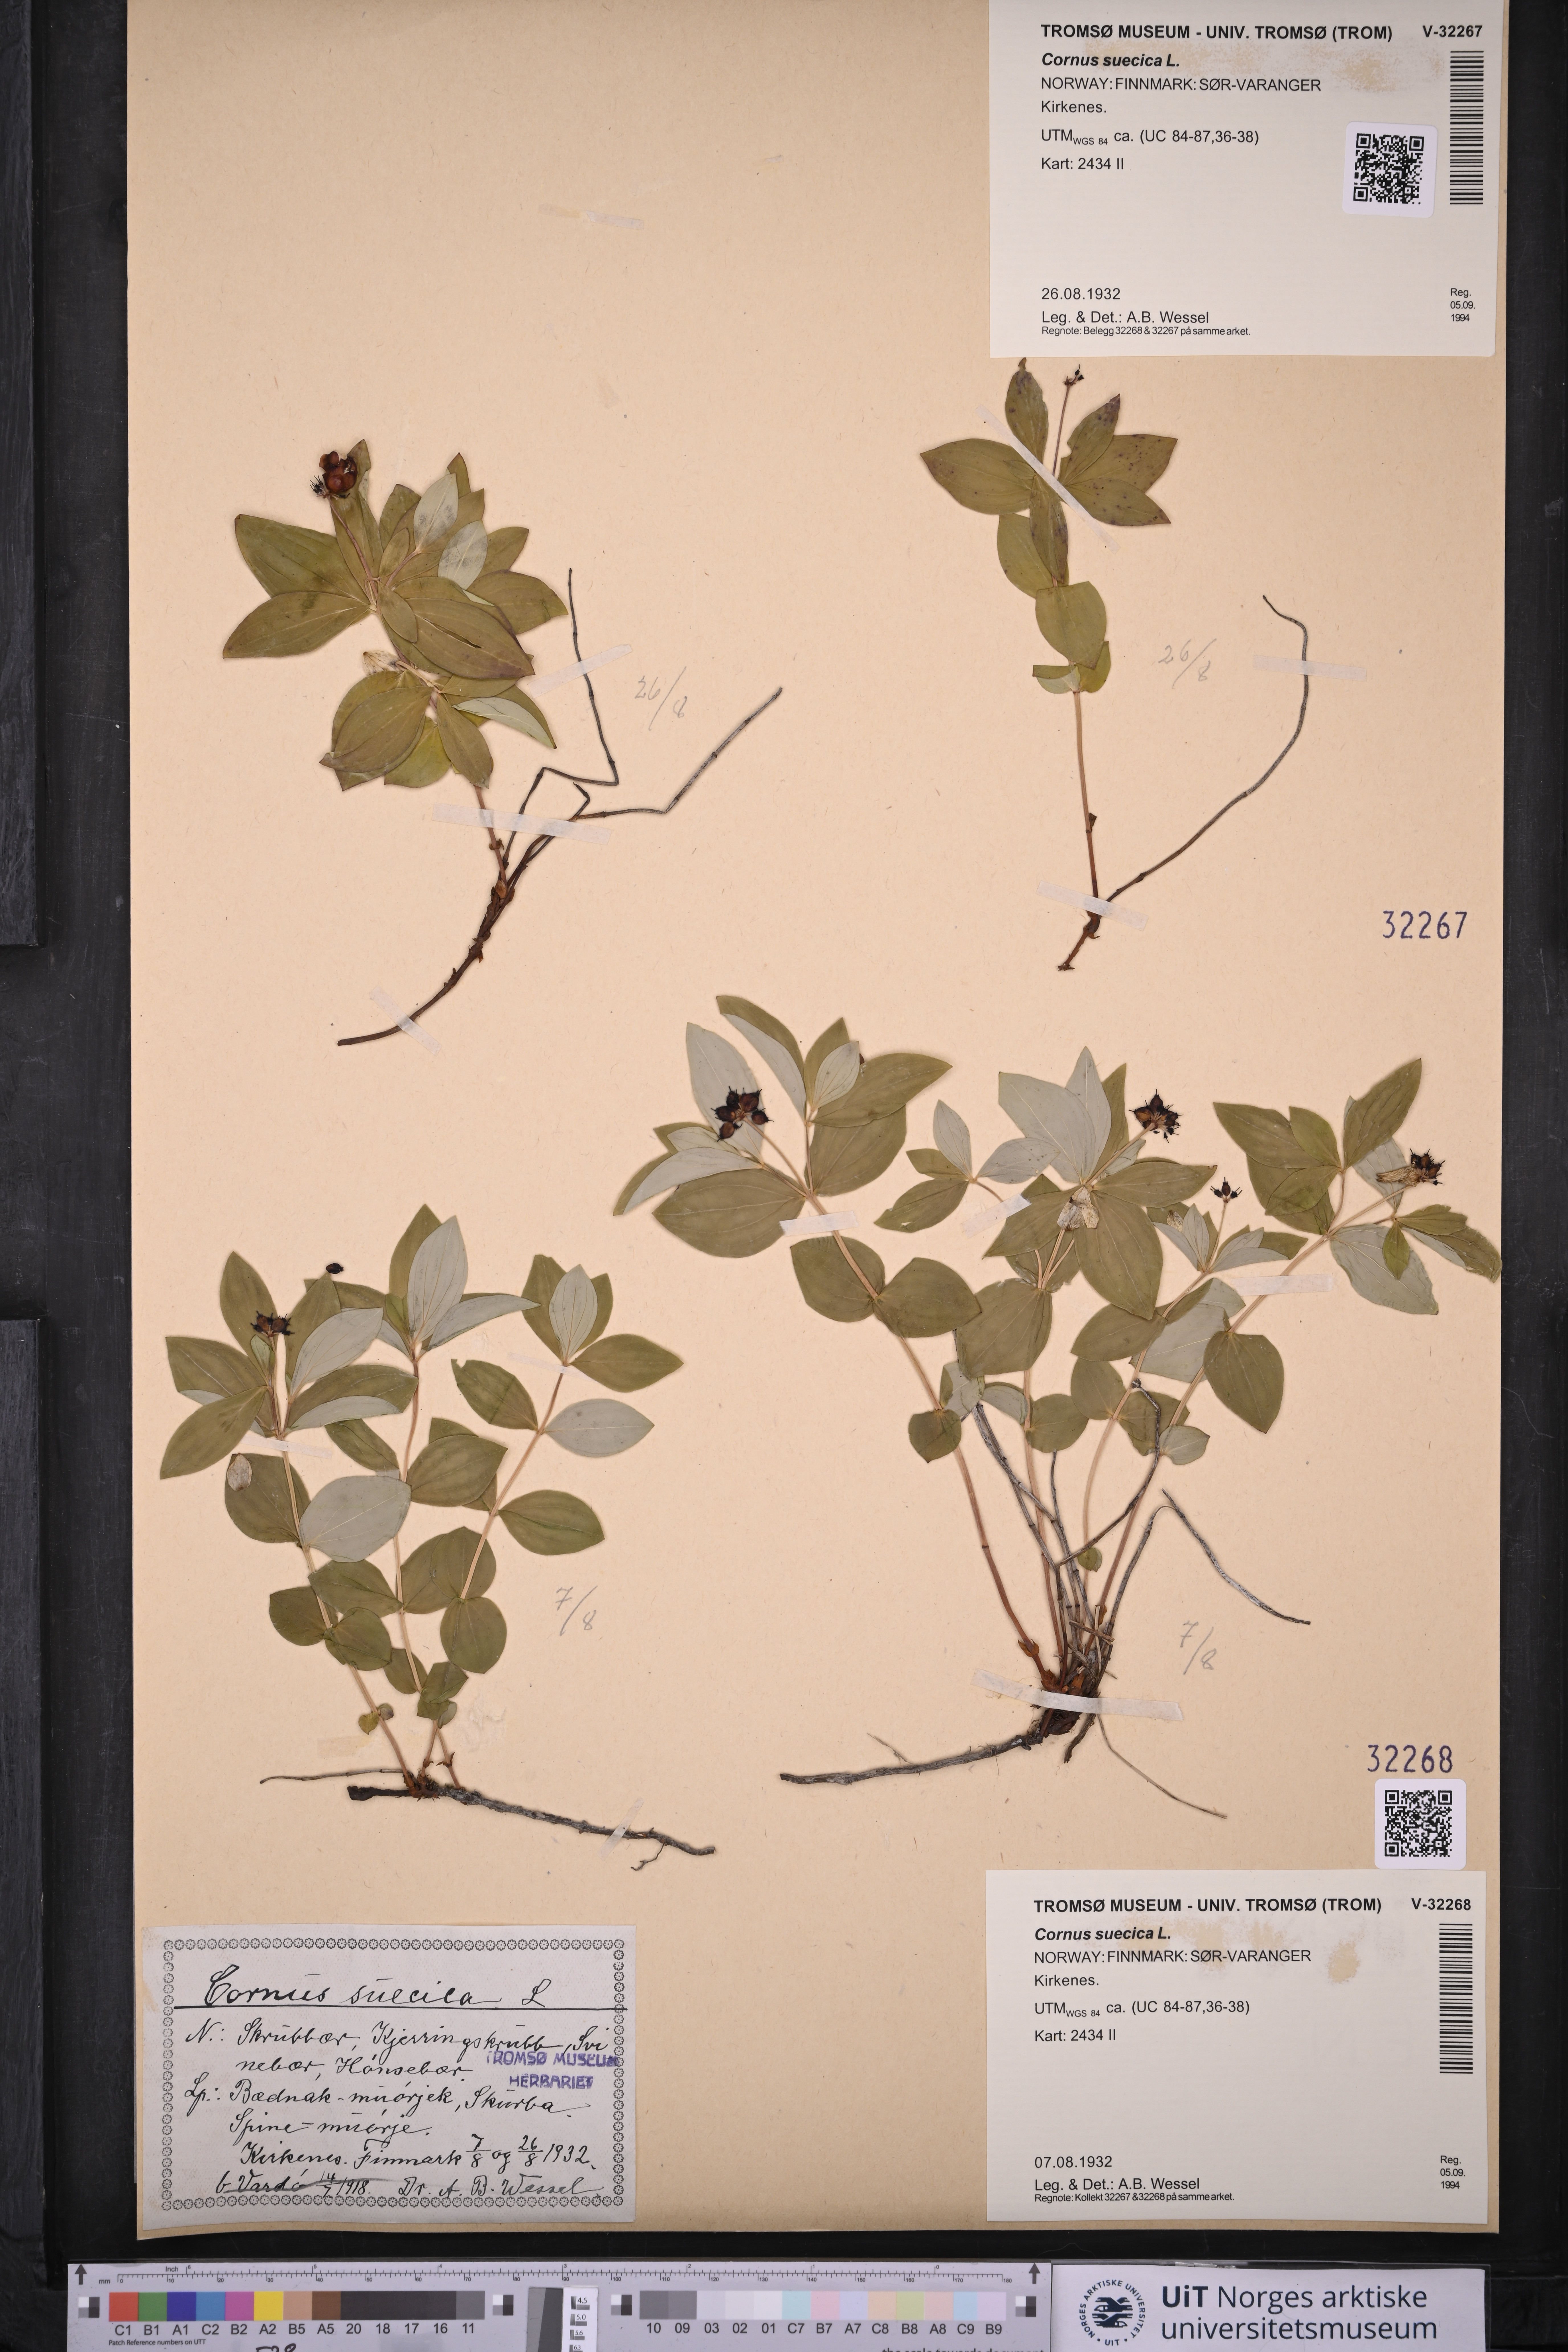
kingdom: Plantae
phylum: Tracheophyta
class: Magnoliopsida
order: Cornales
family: Cornaceae
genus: Cornus
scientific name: Cornus suecica
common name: Dwarf cornel
